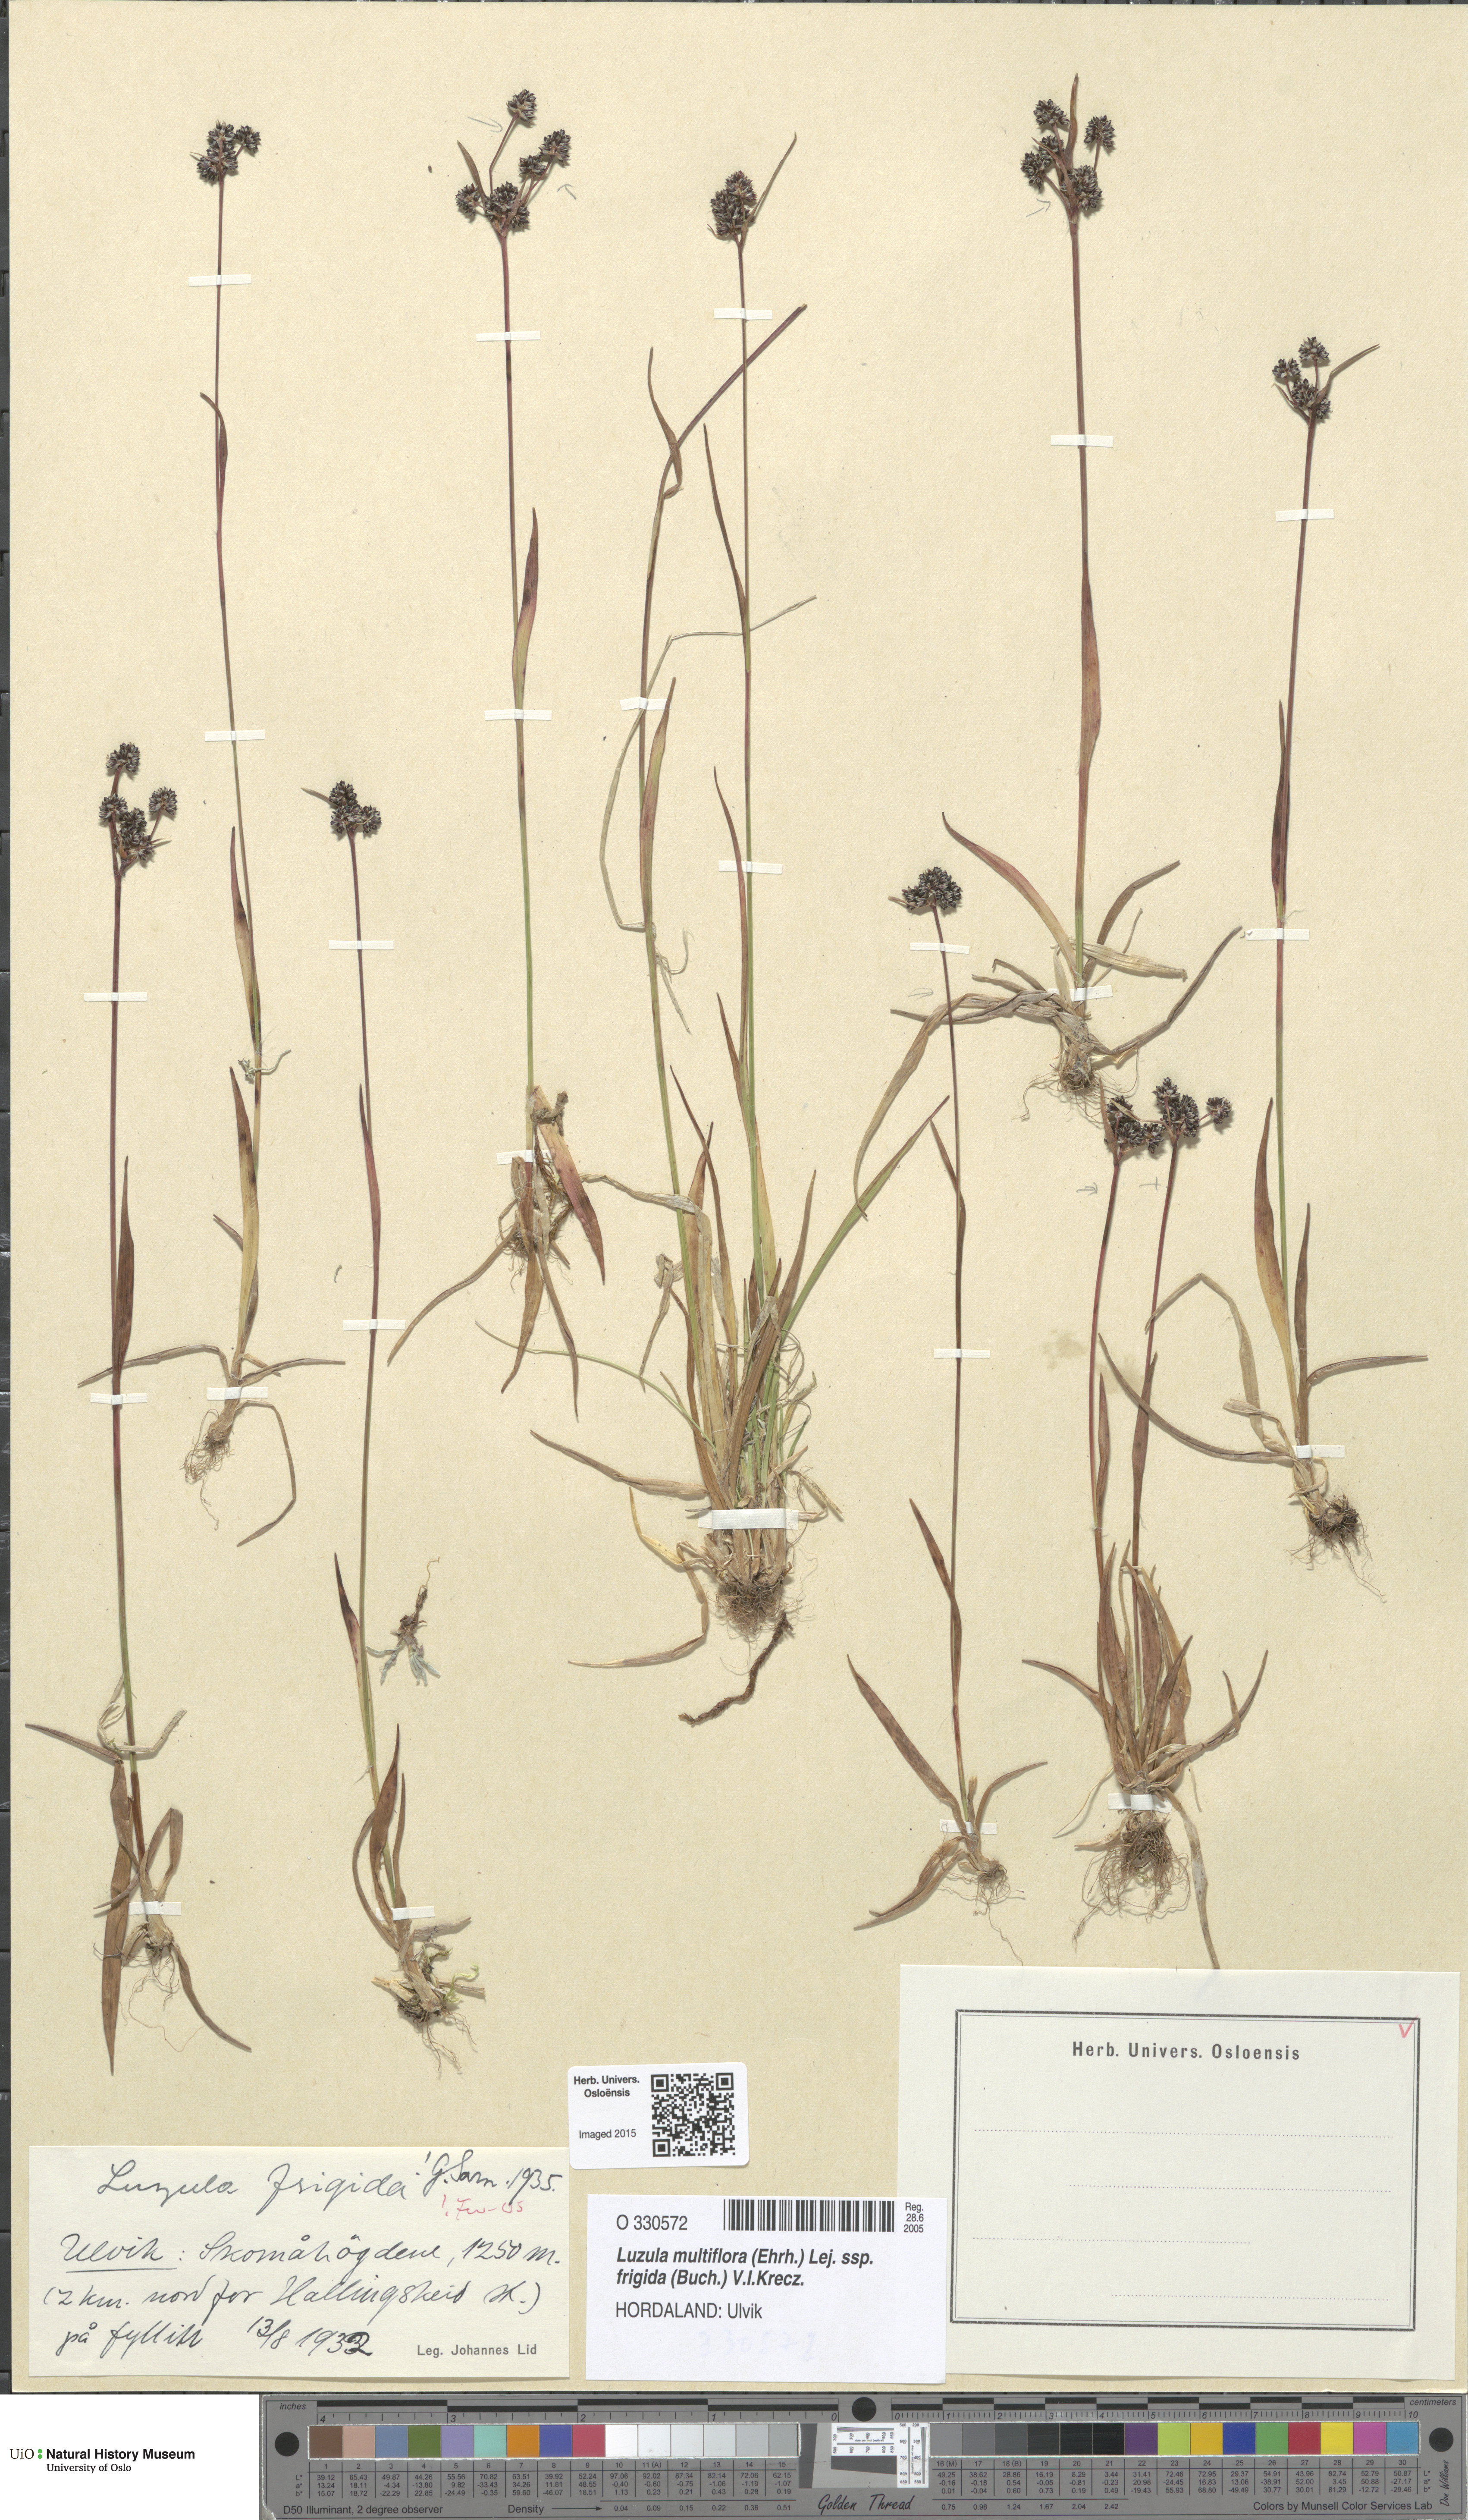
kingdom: Plantae
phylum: Tracheophyta
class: Liliopsida
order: Poales
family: Juncaceae
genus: Luzula
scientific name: Luzula multiflora
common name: Heath wood-rush
